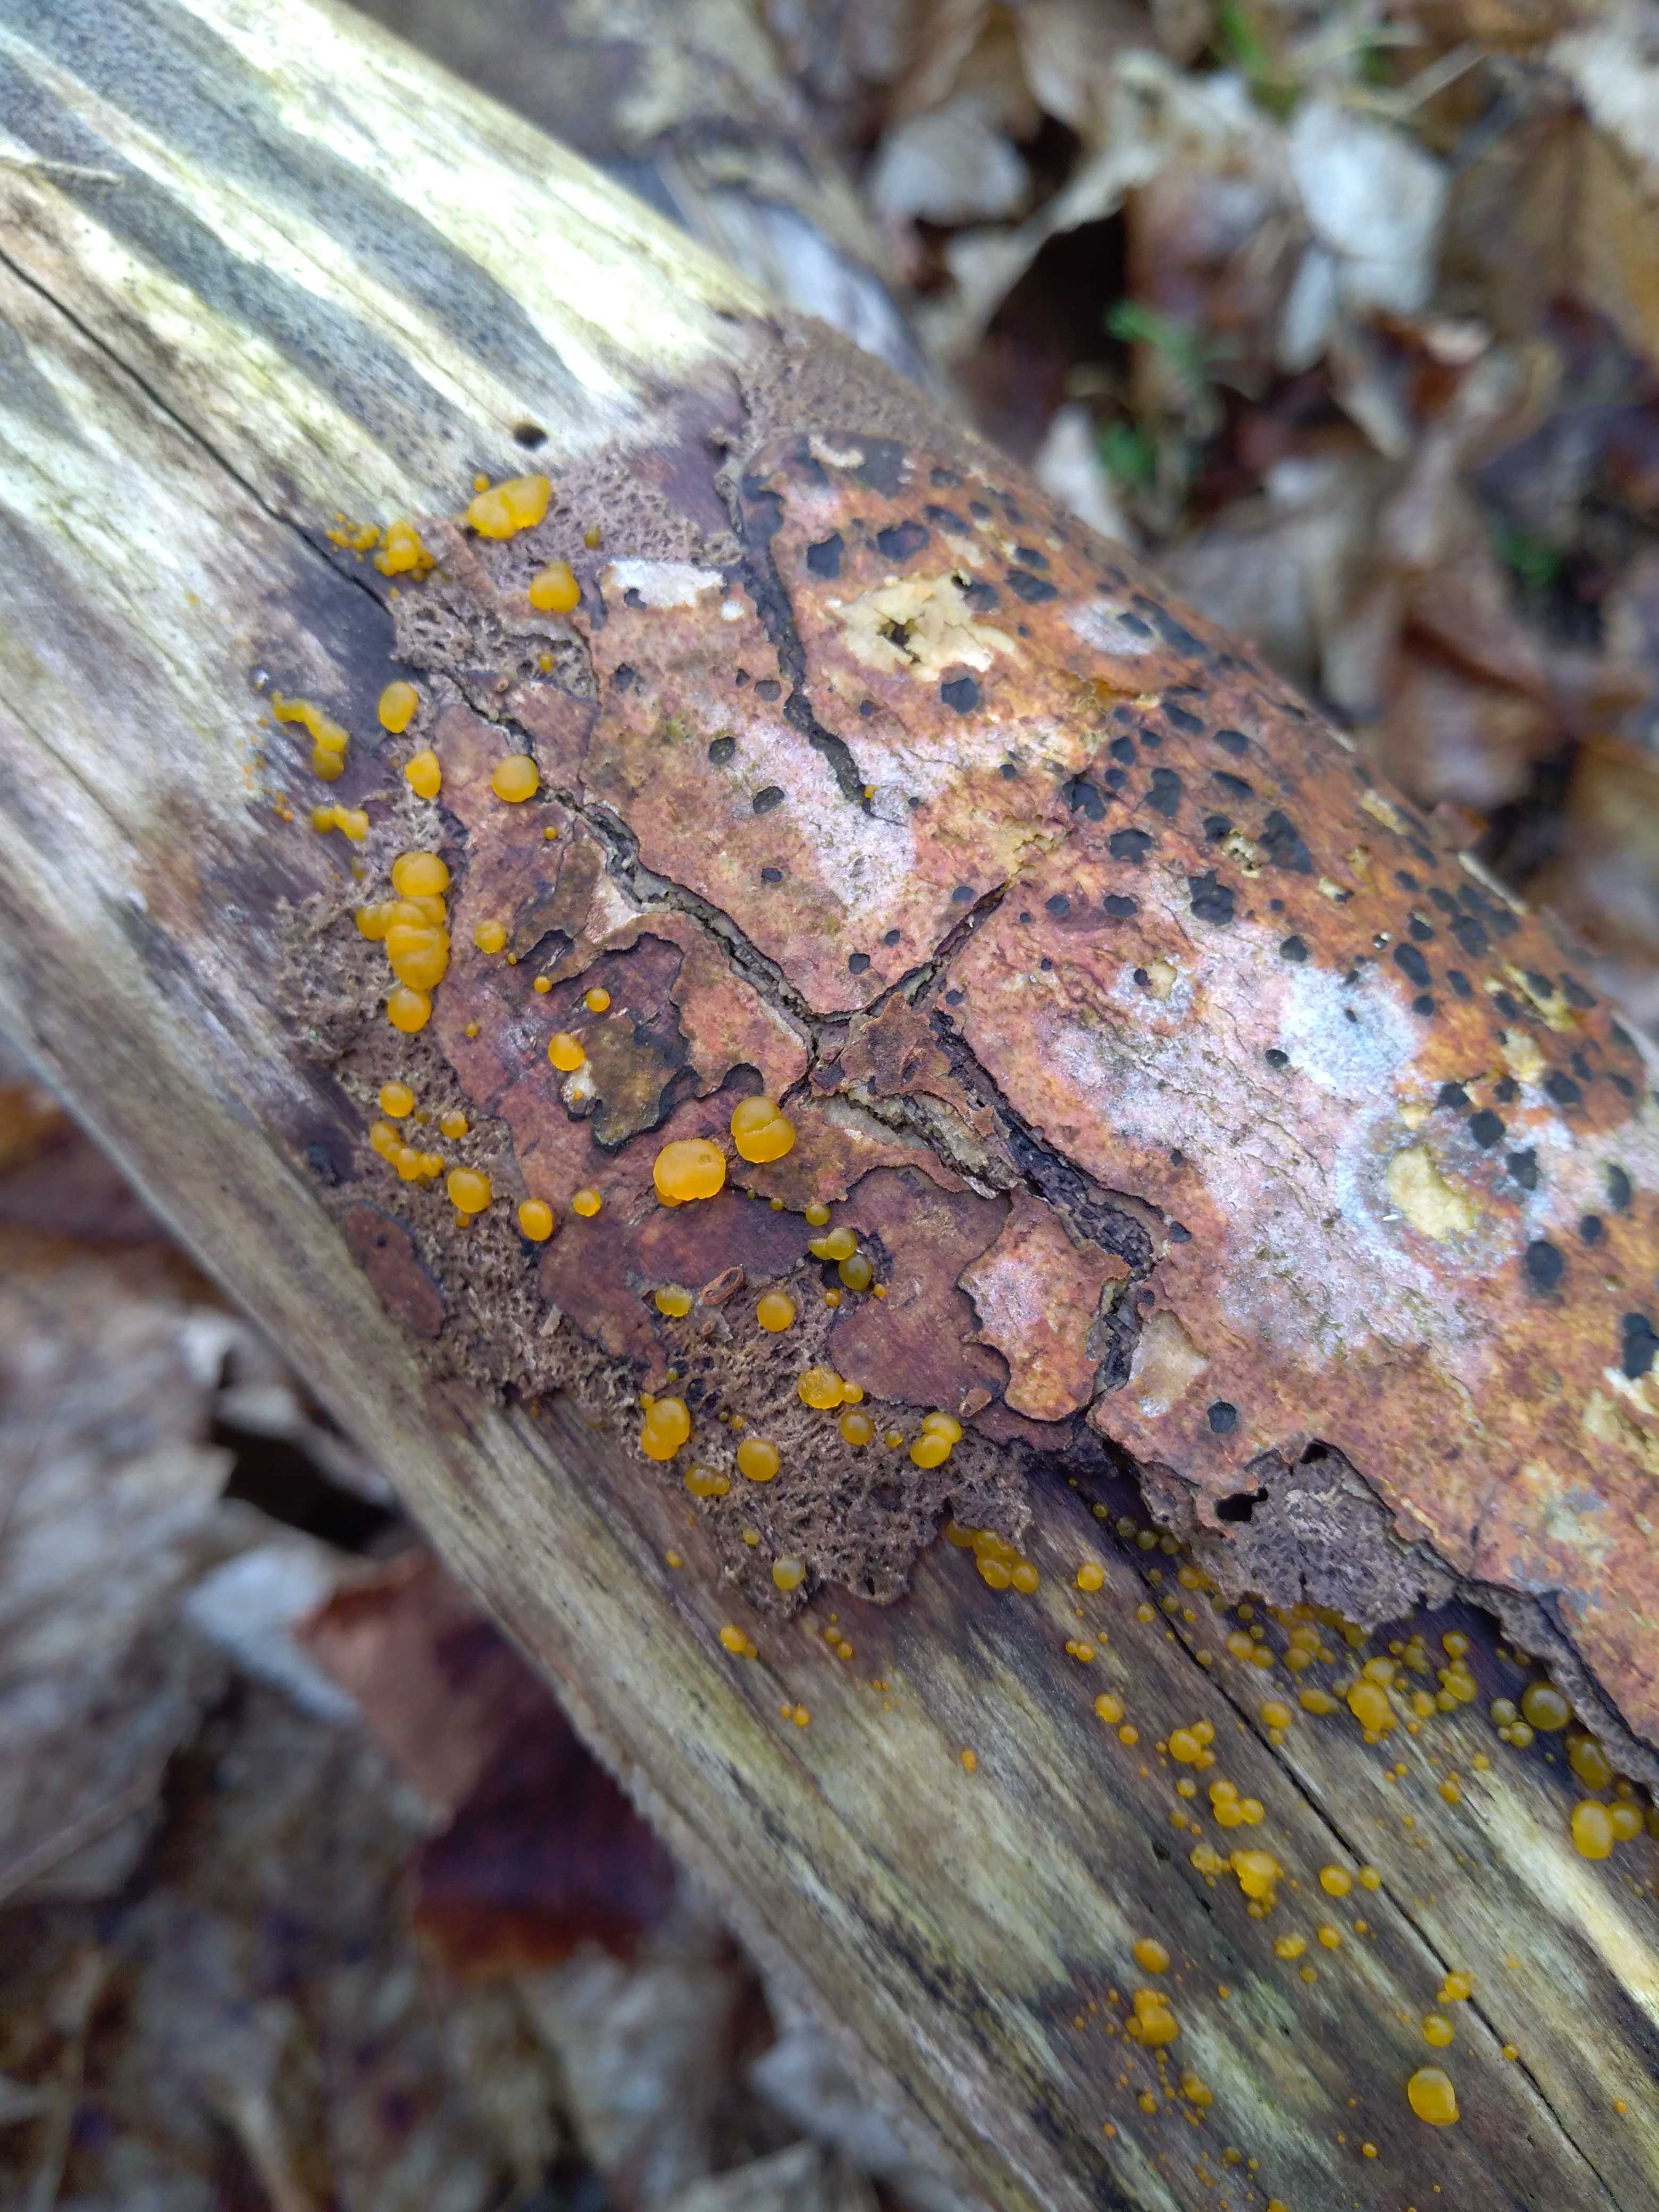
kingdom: Fungi
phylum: Basidiomycota
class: Dacrymycetes
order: Dacrymycetales
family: Dacrymycetaceae
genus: Dacrymyces
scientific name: Dacrymyces stillatus
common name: almindelig tåresvamp
